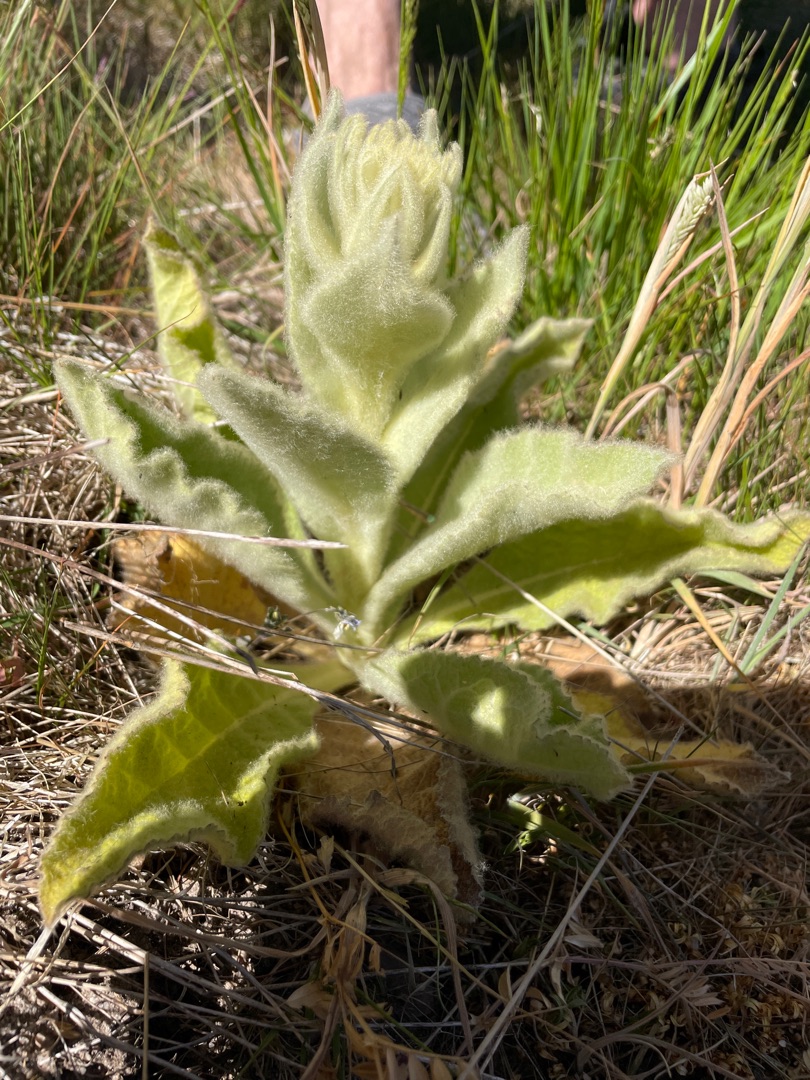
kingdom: Plantae
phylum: Tracheophyta
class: Magnoliopsida
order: Lamiales
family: Scrophulariaceae
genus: Verbascum
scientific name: Verbascum densiflorum
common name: Uldbladet kongelys
